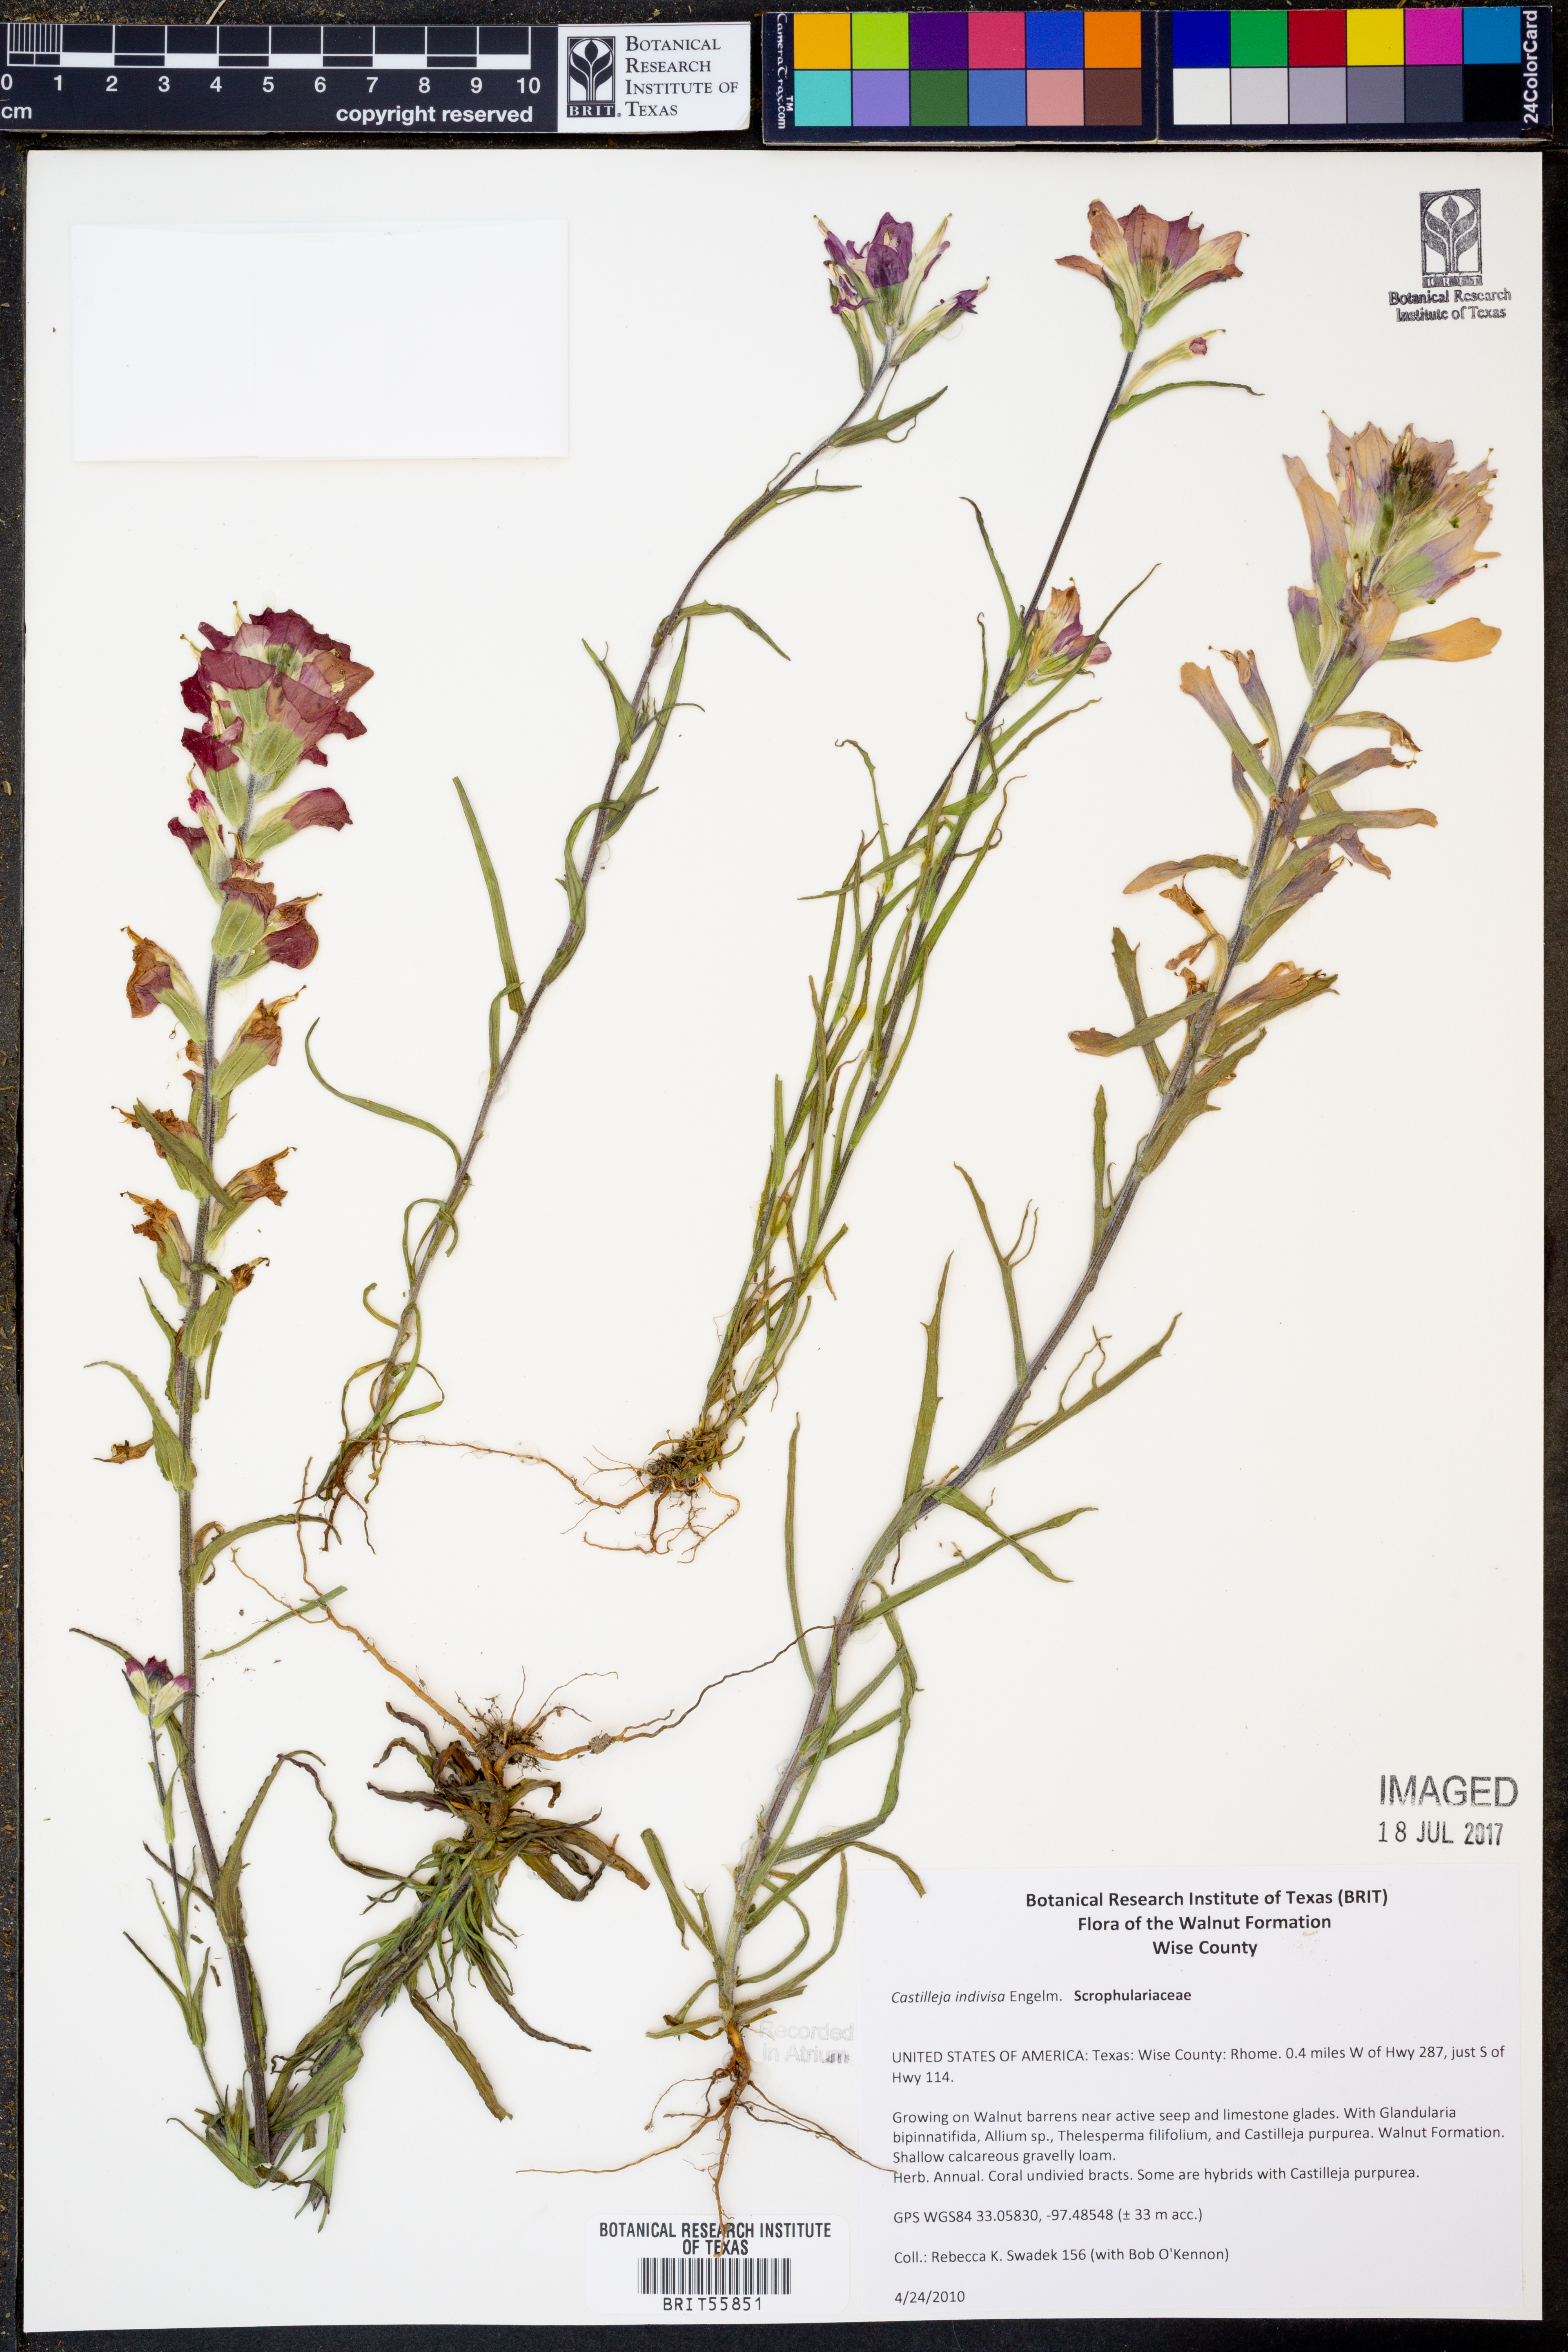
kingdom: Plantae
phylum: Tracheophyta
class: Magnoliopsida
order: Lamiales
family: Orobanchaceae
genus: Castilleja
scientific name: Castilleja indivisa
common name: Texas paintbrush
